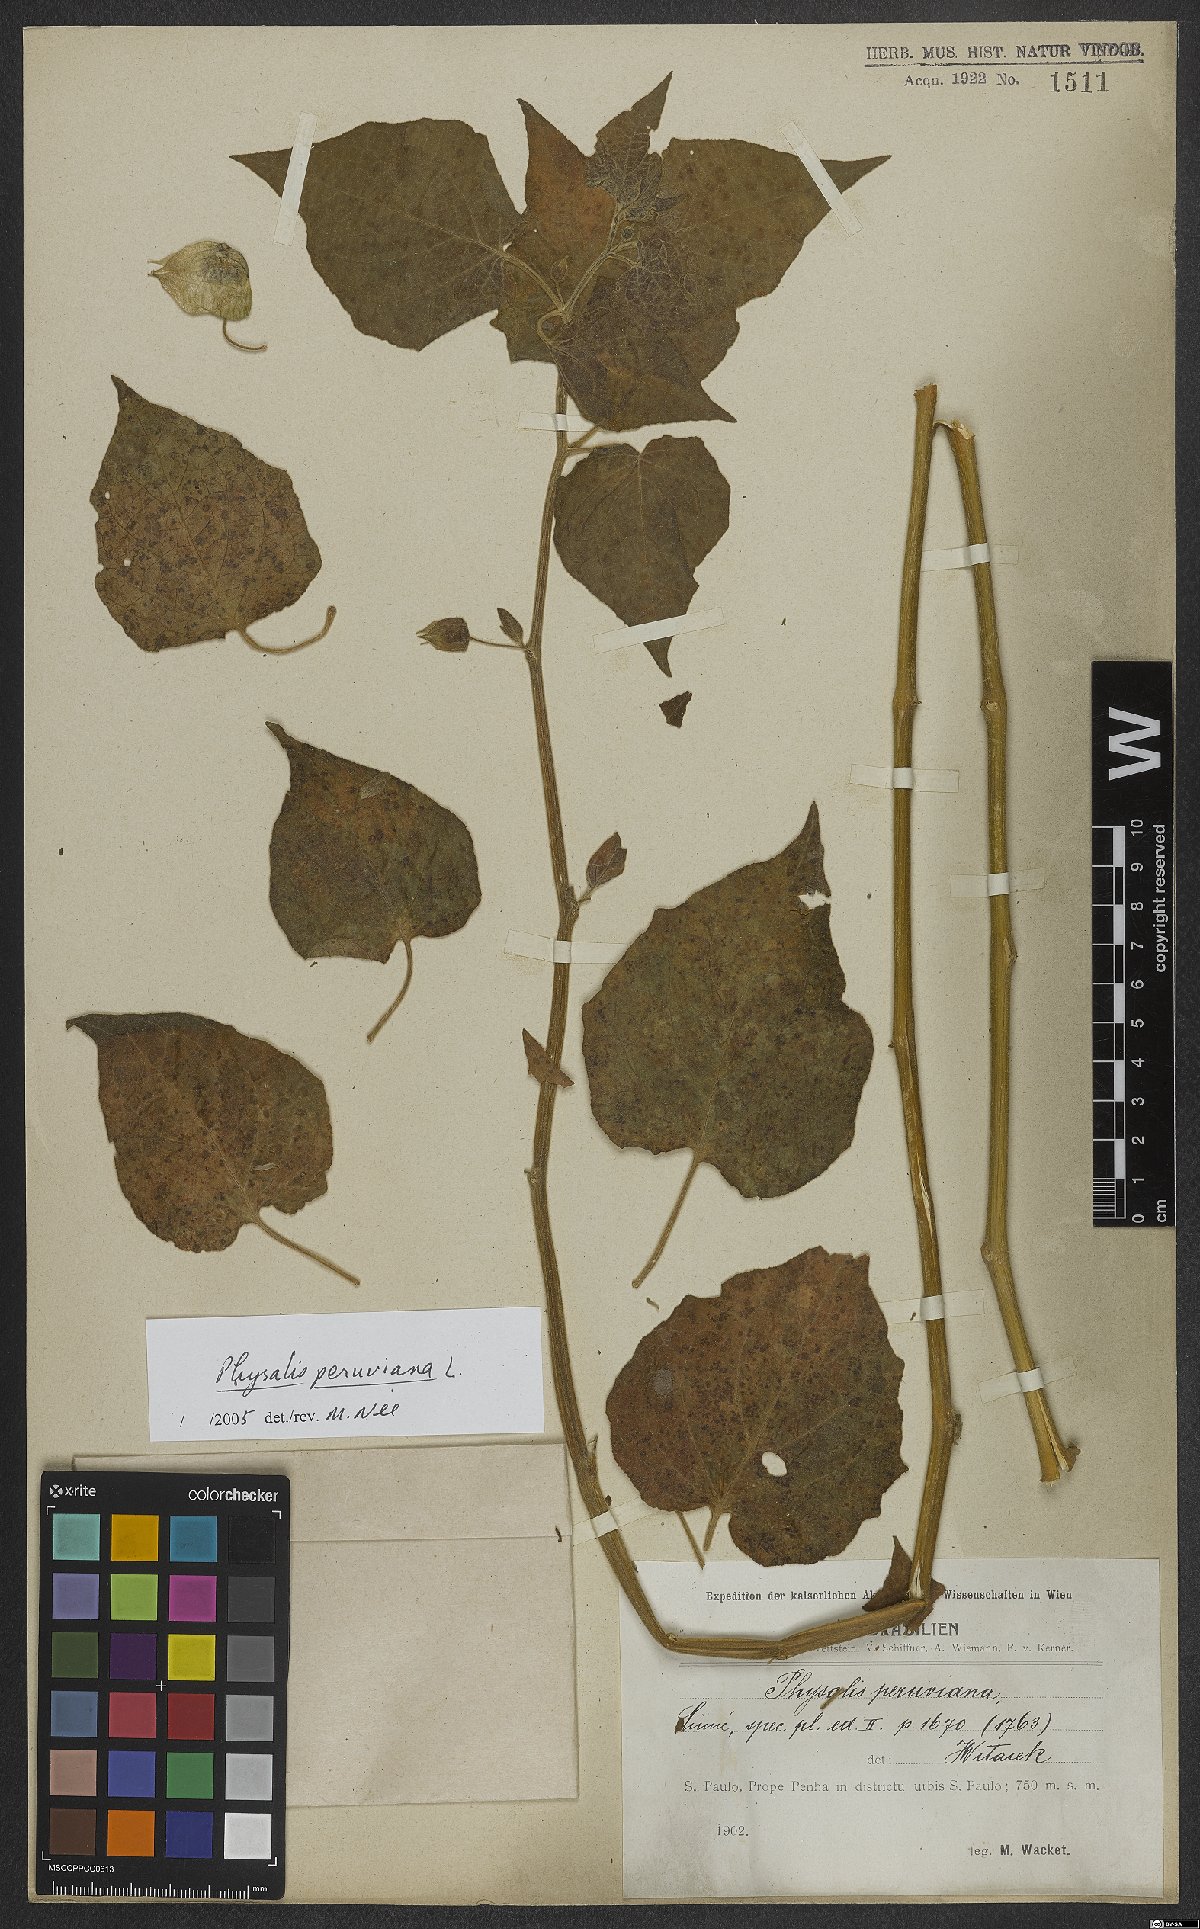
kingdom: Plantae
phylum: Tracheophyta
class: Magnoliopsida
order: Solanales
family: Solanaceae
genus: Physalis
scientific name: Physalis peruviana
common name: Cape-gooseberry
